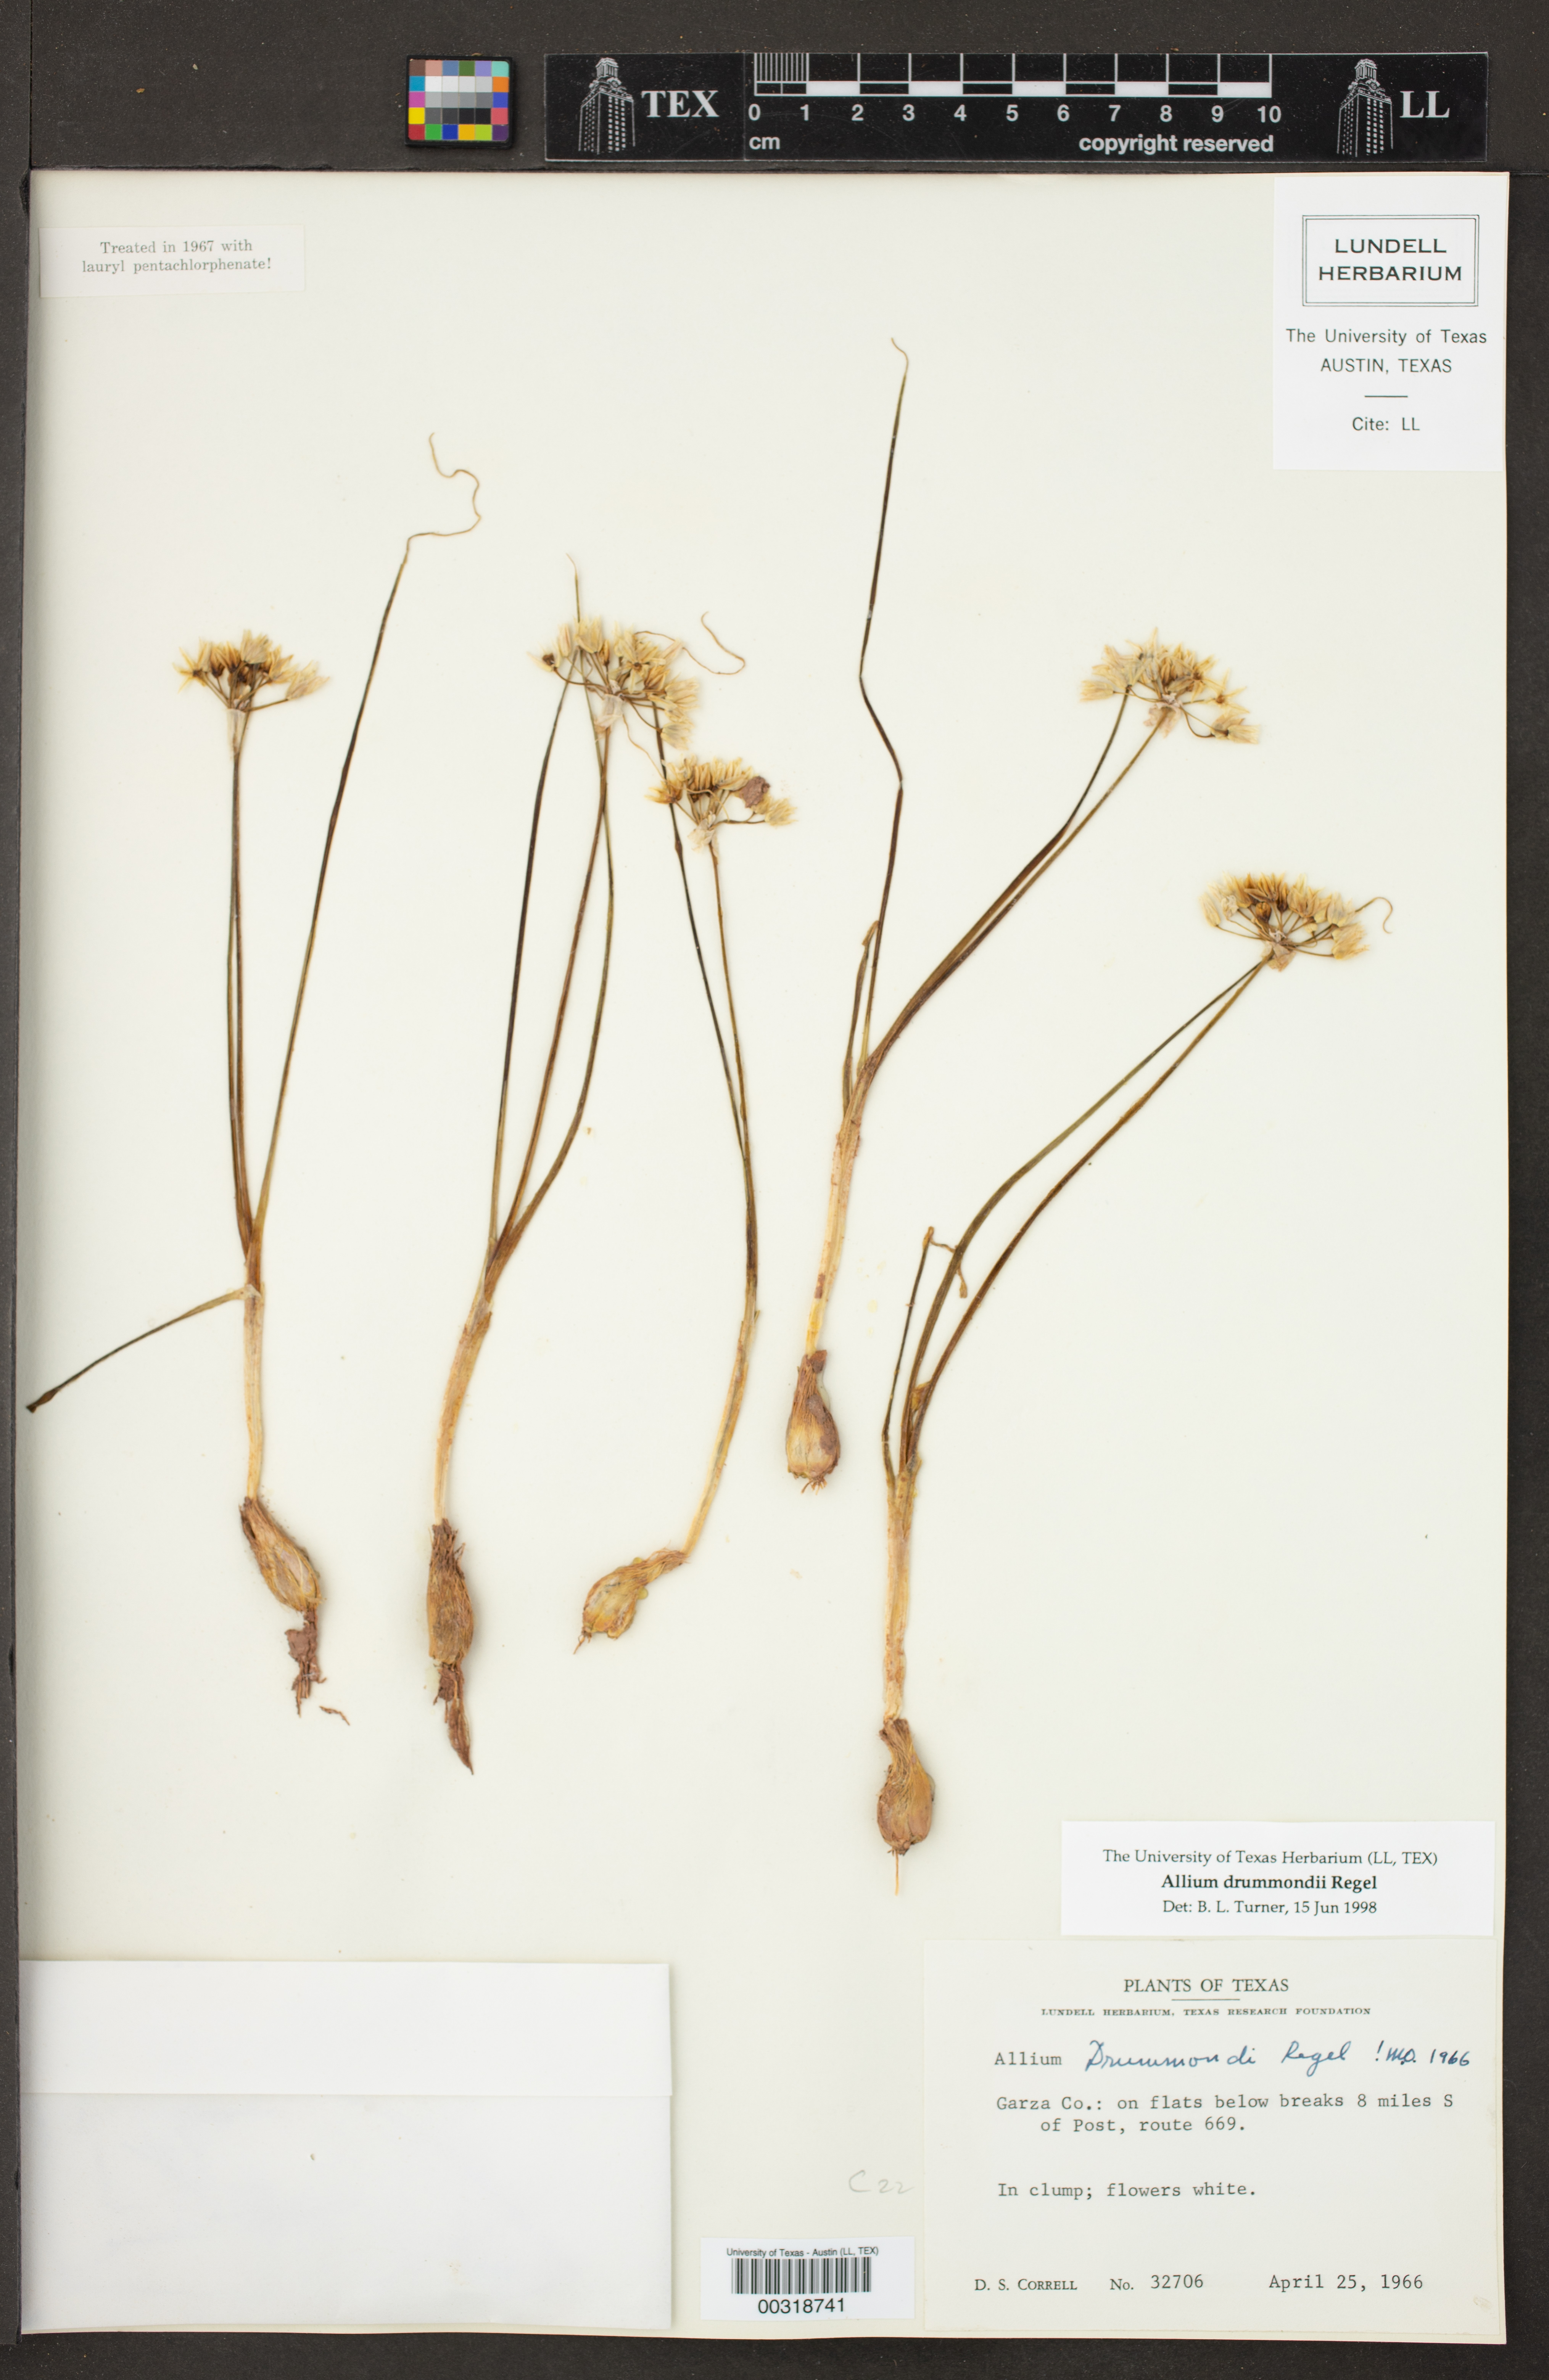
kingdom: Plantae
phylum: Tracheophyta
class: Liliopsida
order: Asparagales
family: Amaryllidaceae
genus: Allium
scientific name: Allium drummondii
